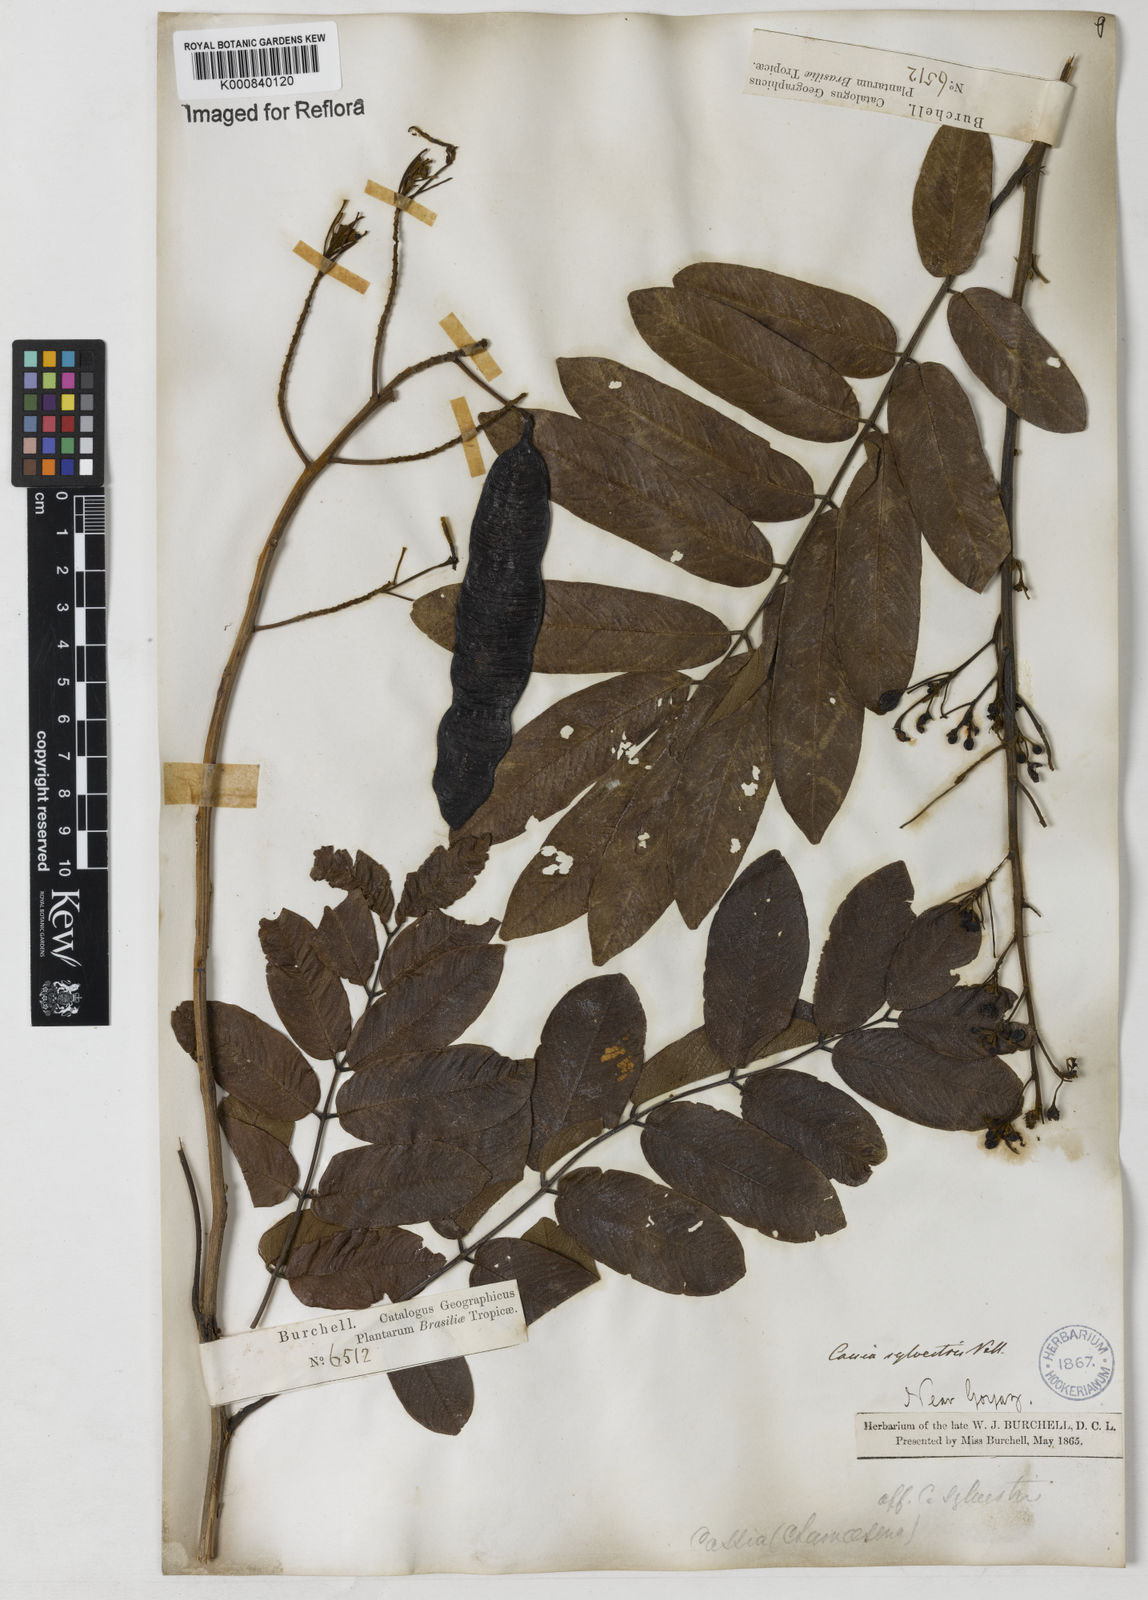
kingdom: Plantae
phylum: Tracheophyta
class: Magnoliopsida
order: Fabales
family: Fabaceae
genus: Senna
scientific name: Senna silvestris
